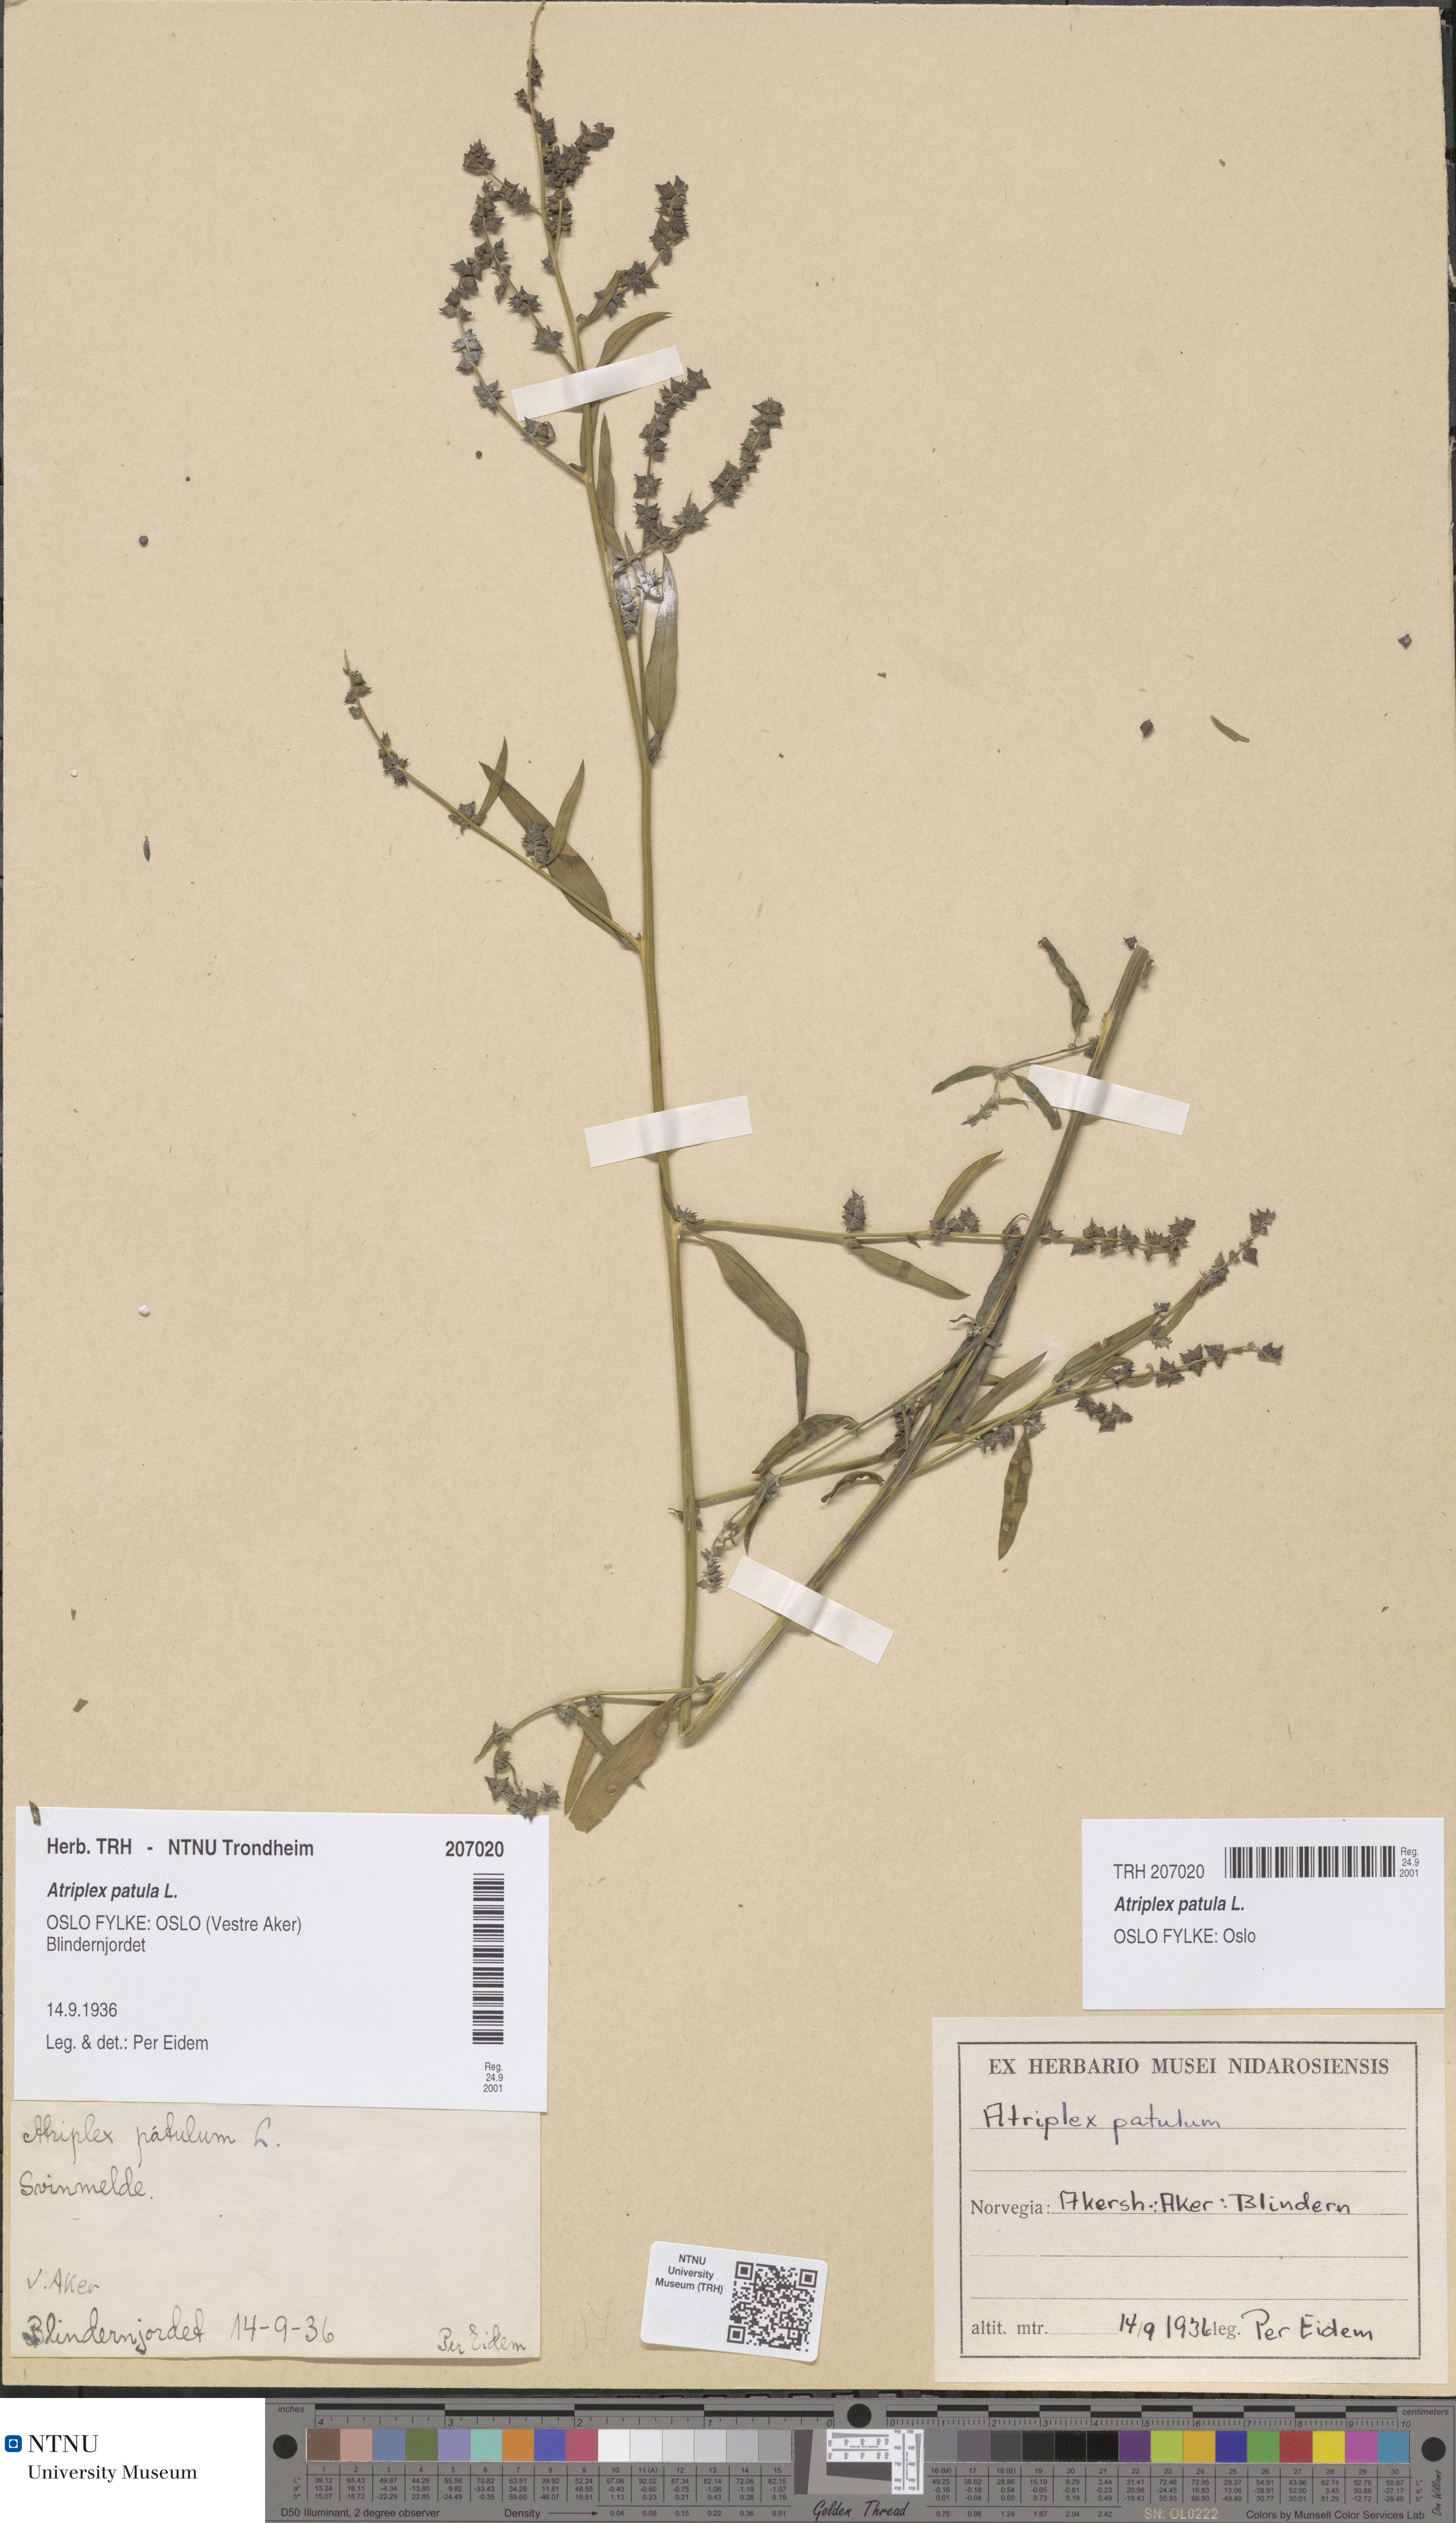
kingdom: Plantae
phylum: Tracheophyta
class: Magnoliopsida
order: Caryophyllales
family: Amaranthaceae
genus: Atriplex
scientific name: Atriplex patula
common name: Common orache
